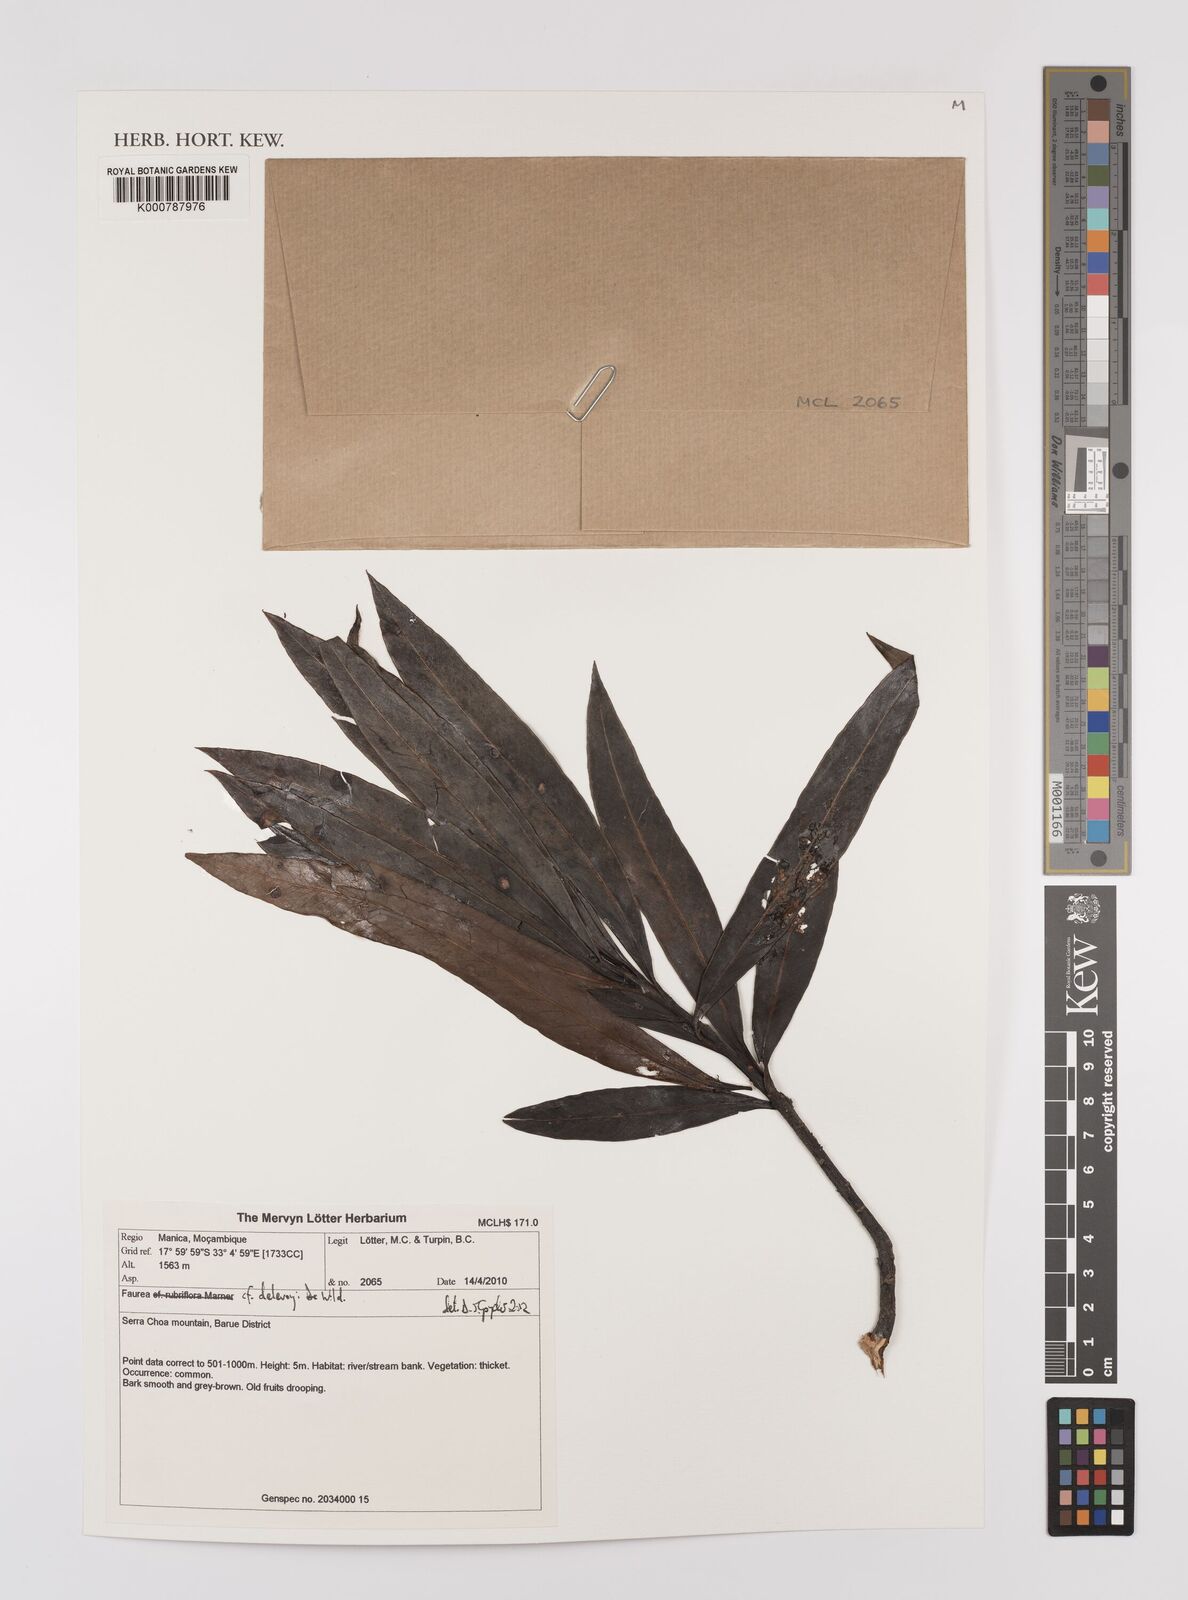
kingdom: Plantae
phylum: Tracheophyta
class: Magnoliopsida
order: Proteales
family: Proteaceae
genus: Faurea
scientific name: Faurea delevoyi
